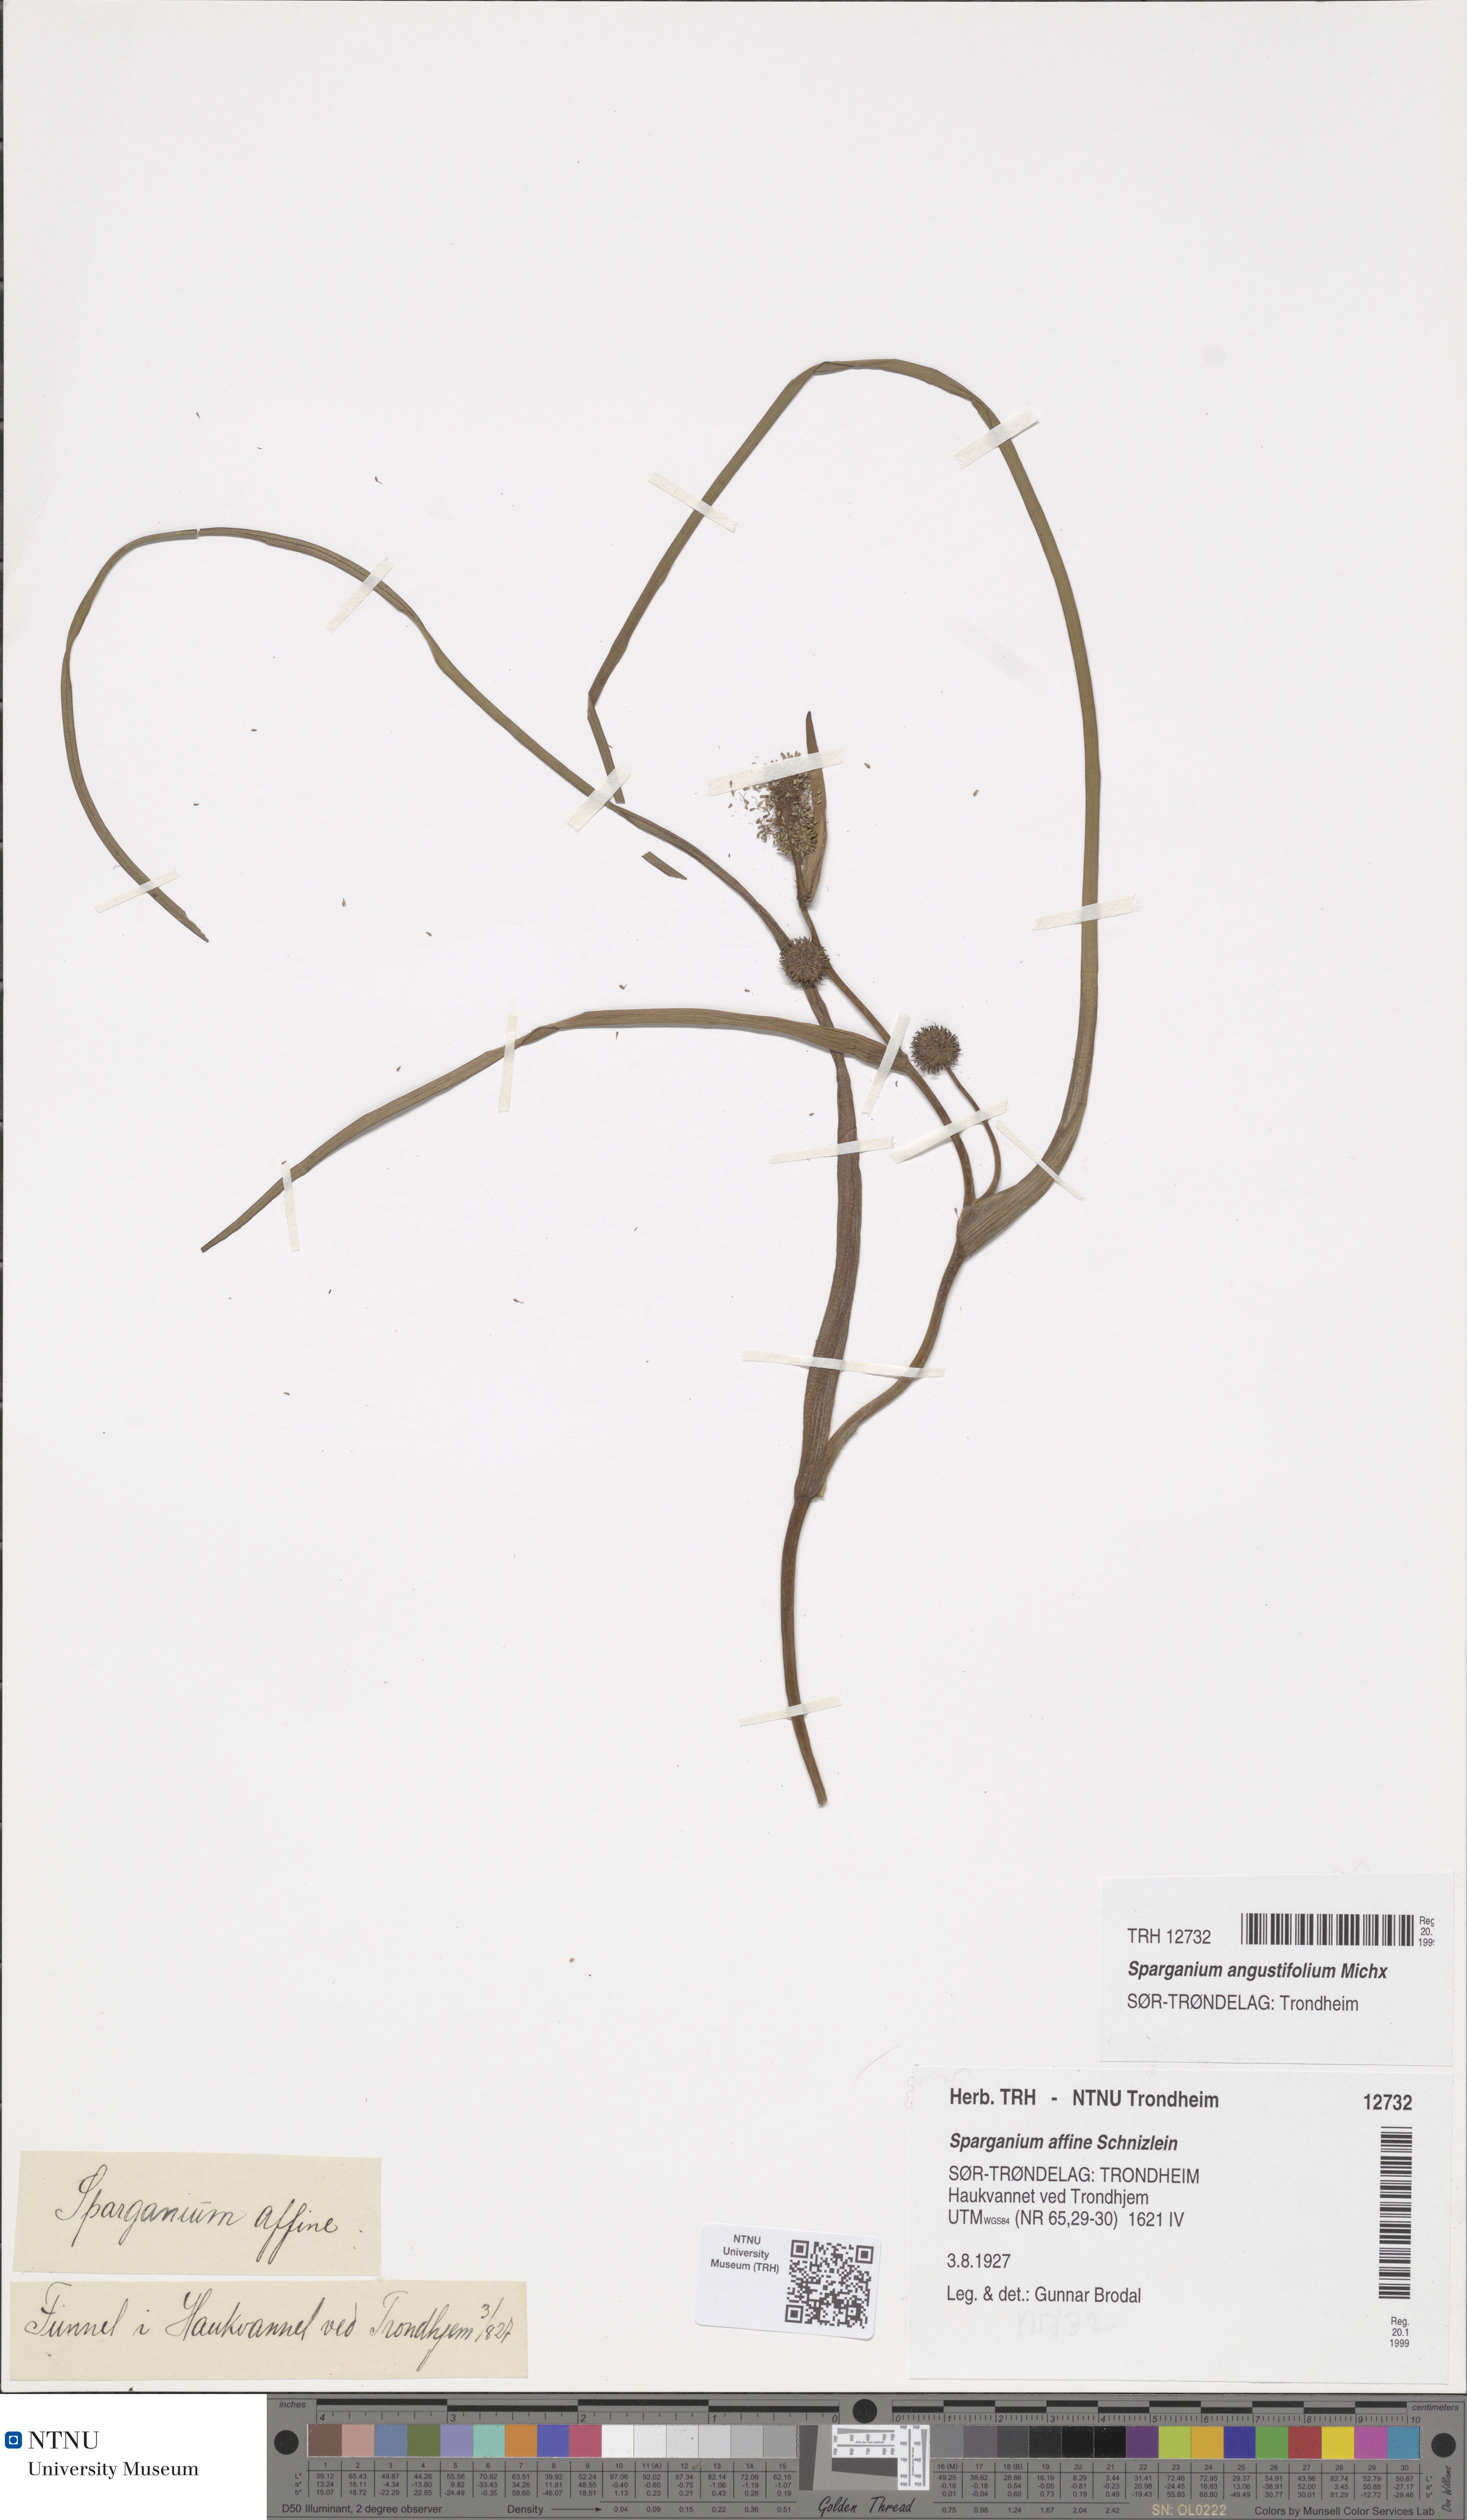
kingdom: Plantae
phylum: Tracheophyta
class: Liliopsida
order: Poales
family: Typhaceae
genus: Sparganium
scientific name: Sparganium angustifolium
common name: Floating bur-reed
